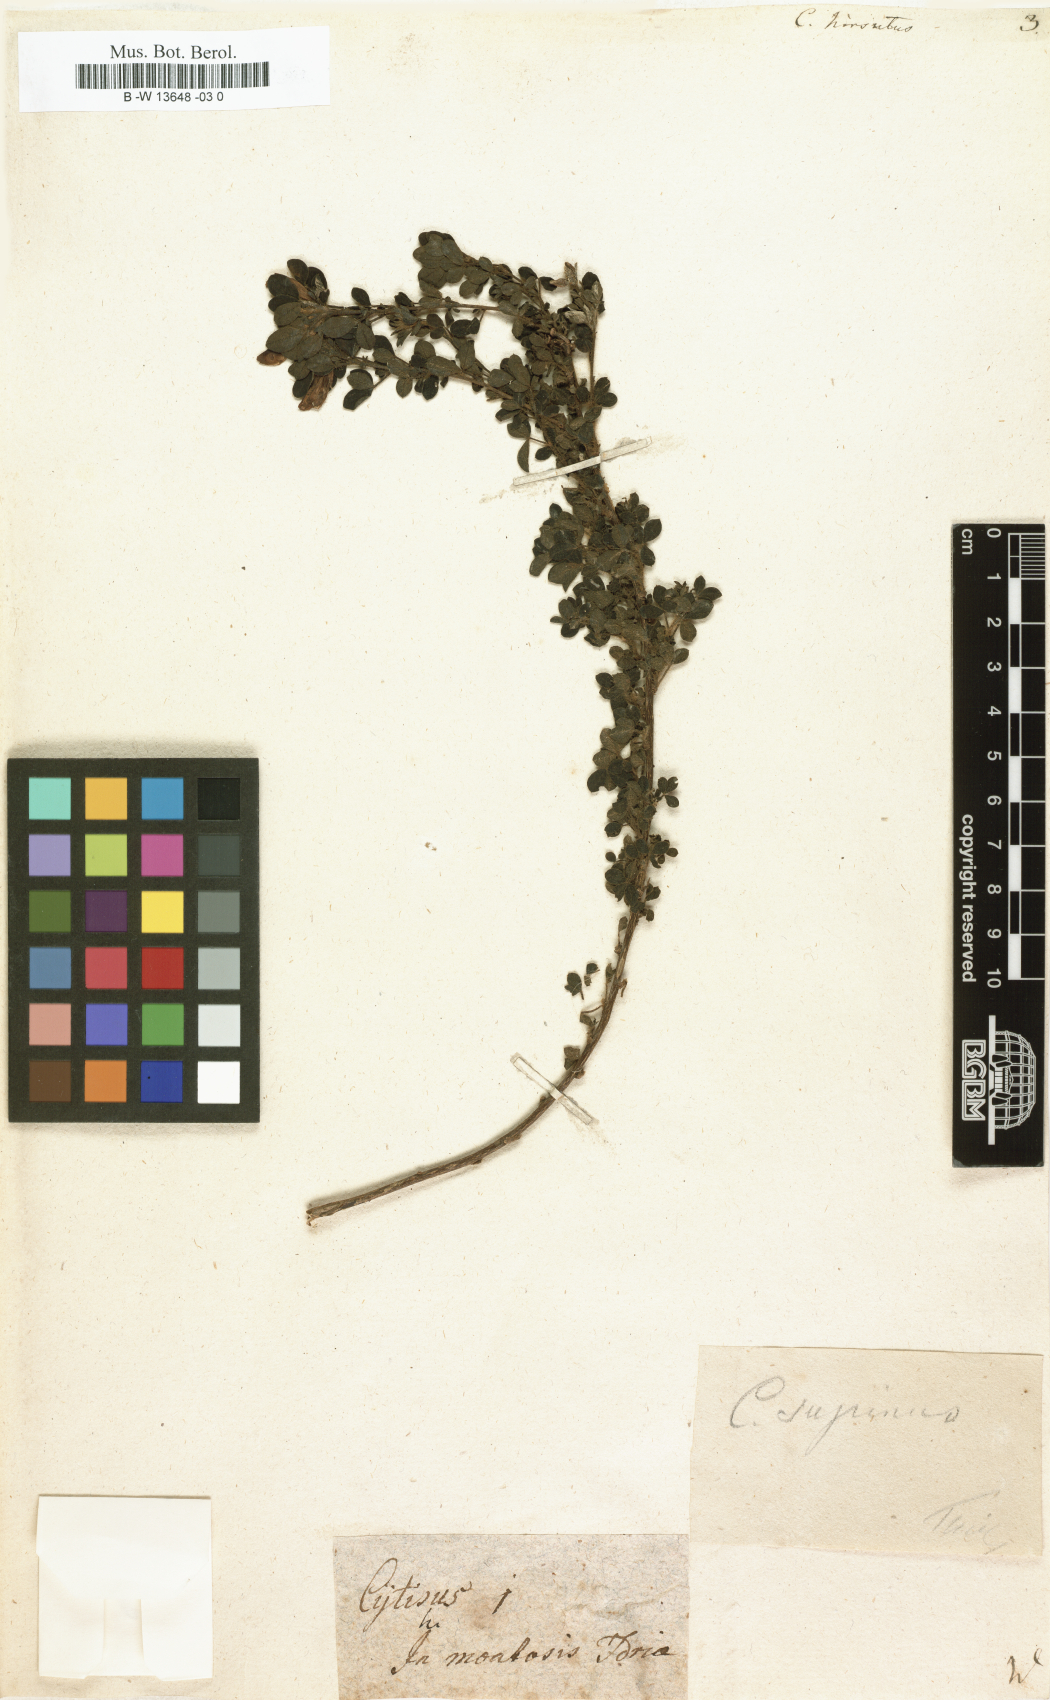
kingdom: Plantae
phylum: Tracheophyta
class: Magnoliopsida
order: Fabales
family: Fabaceae
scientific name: Fabaceae
